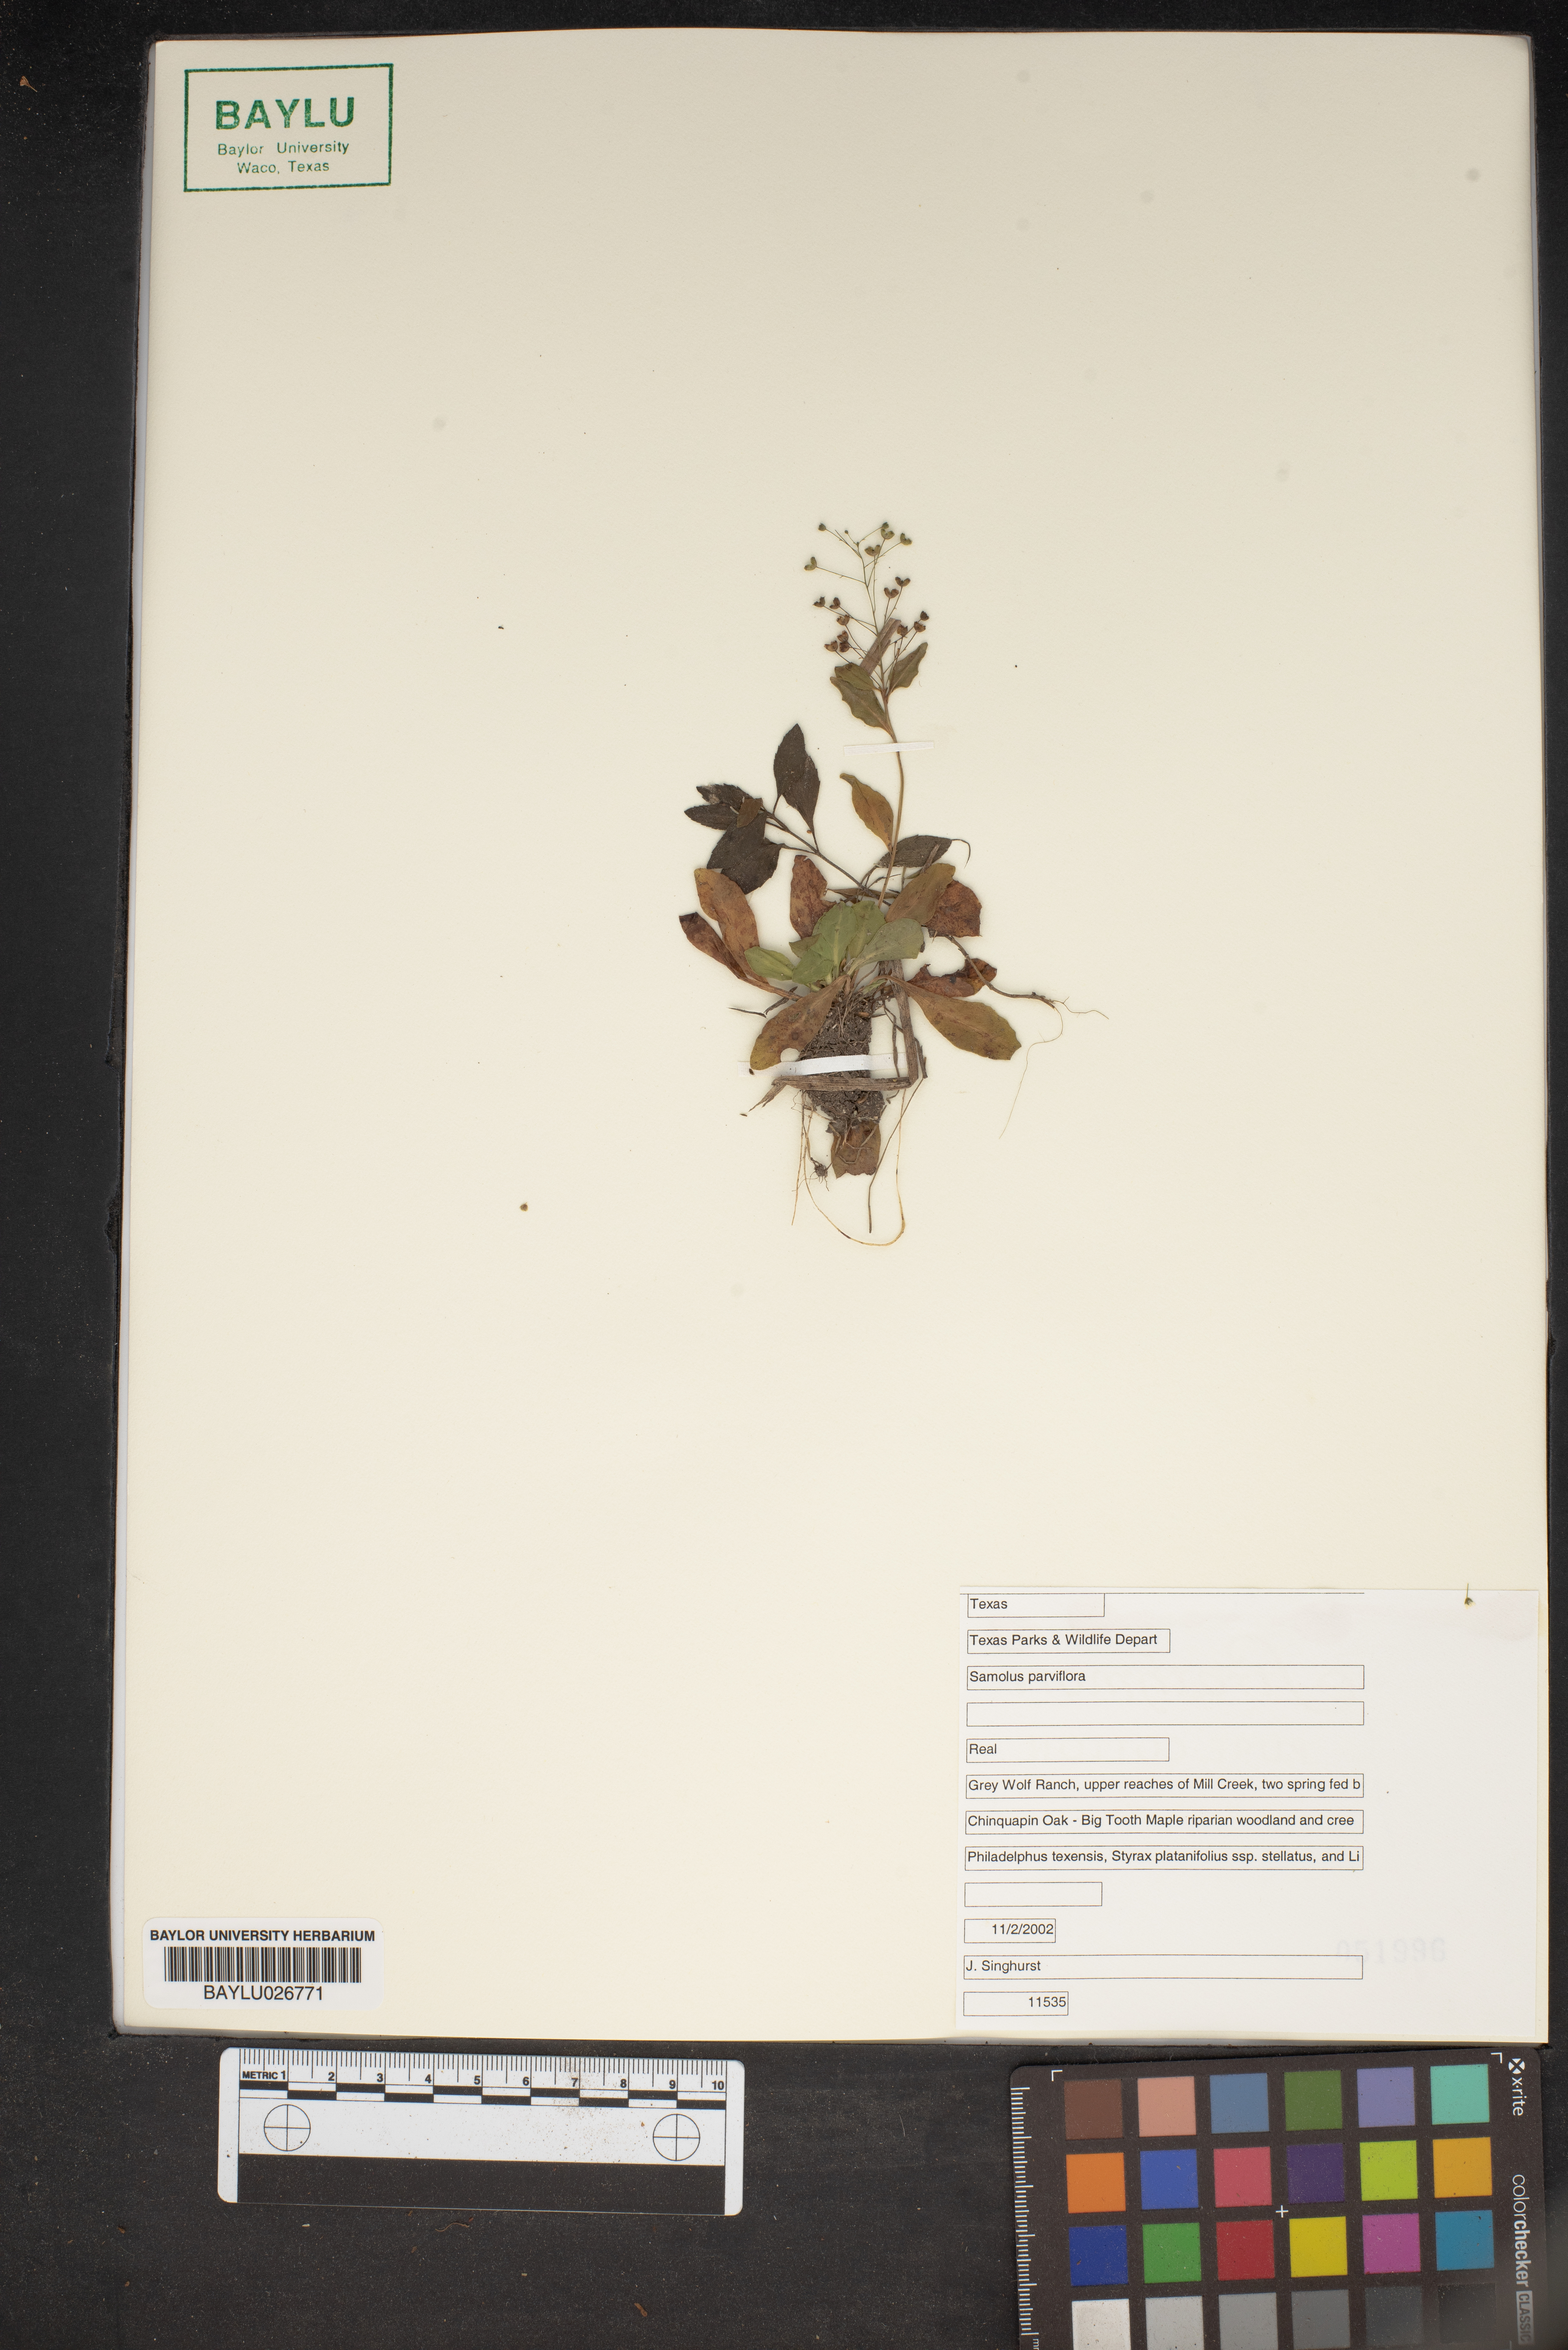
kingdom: Plantae
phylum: Tracheophyta
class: Magnoliopsida
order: Ericales
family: Primulaceae
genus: Samolus
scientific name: Samolus parviflorus
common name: False water pimpernel
